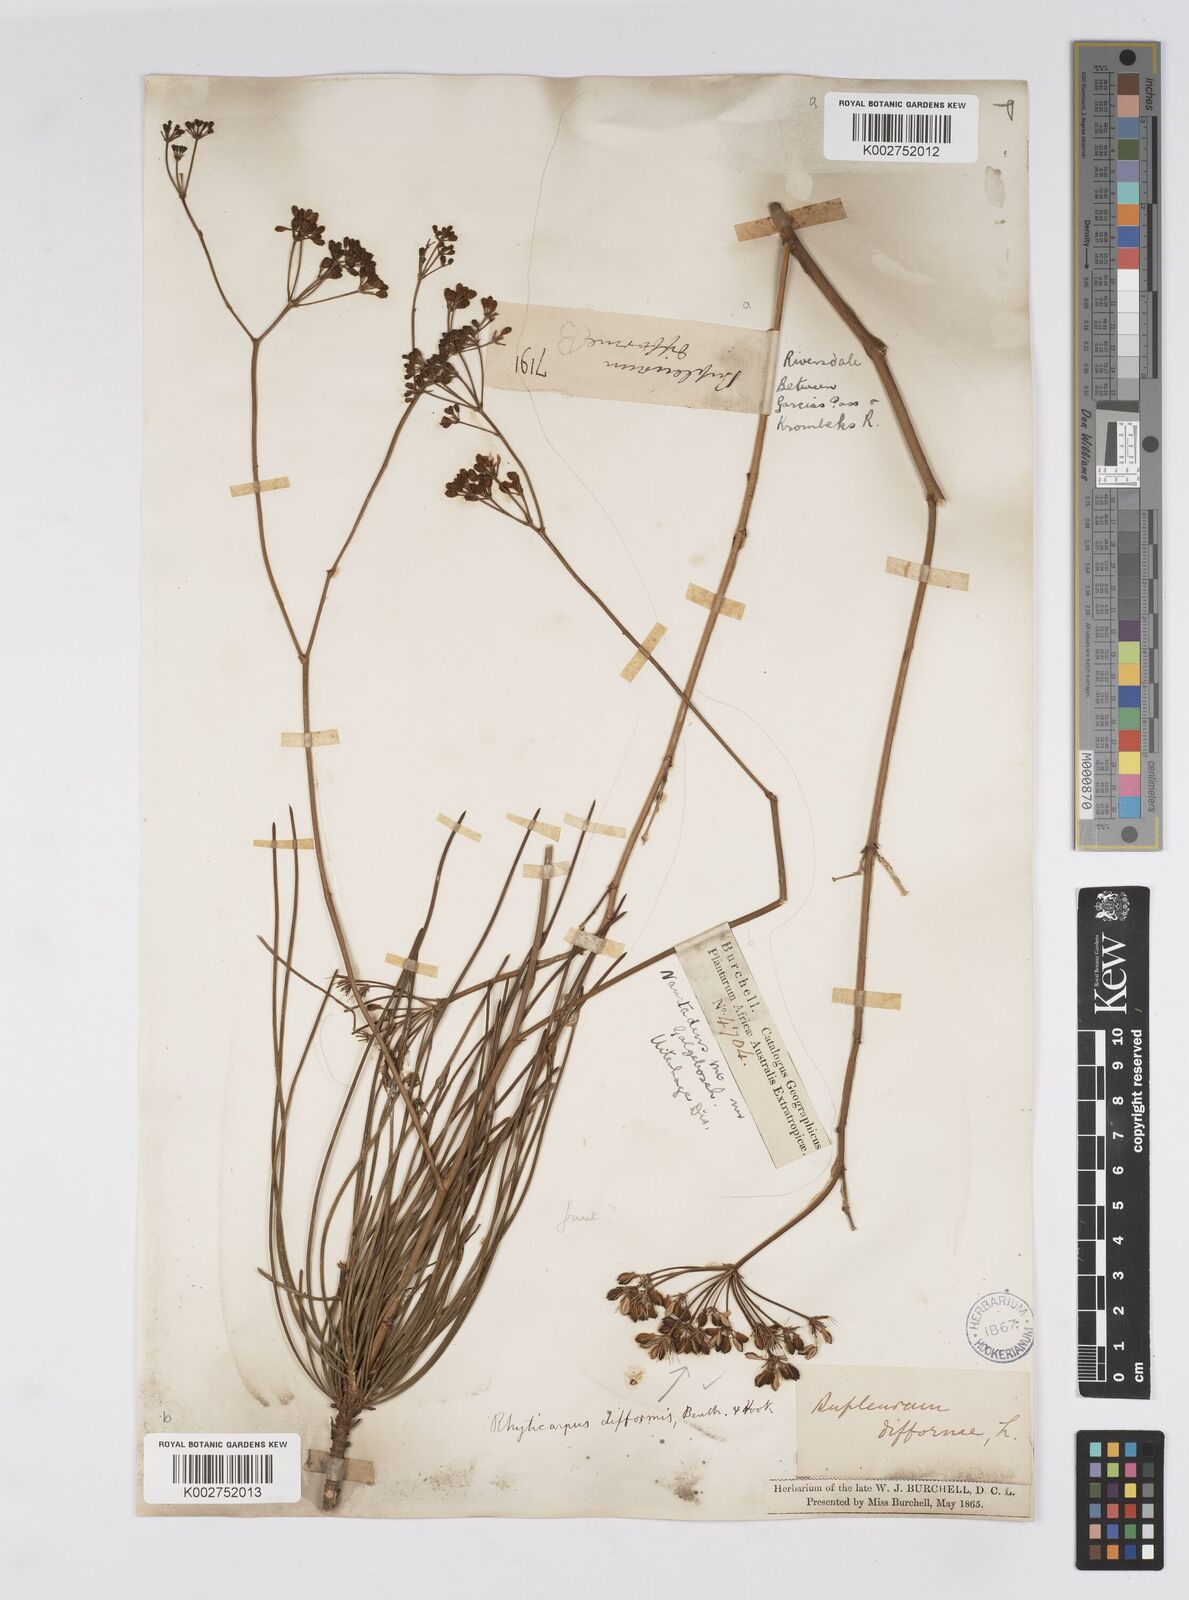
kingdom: Plantae
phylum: Tracheophyta
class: Magnoliopsida
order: Apiales
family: Apiaceae
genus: Anginon
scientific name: Anginon difforme
